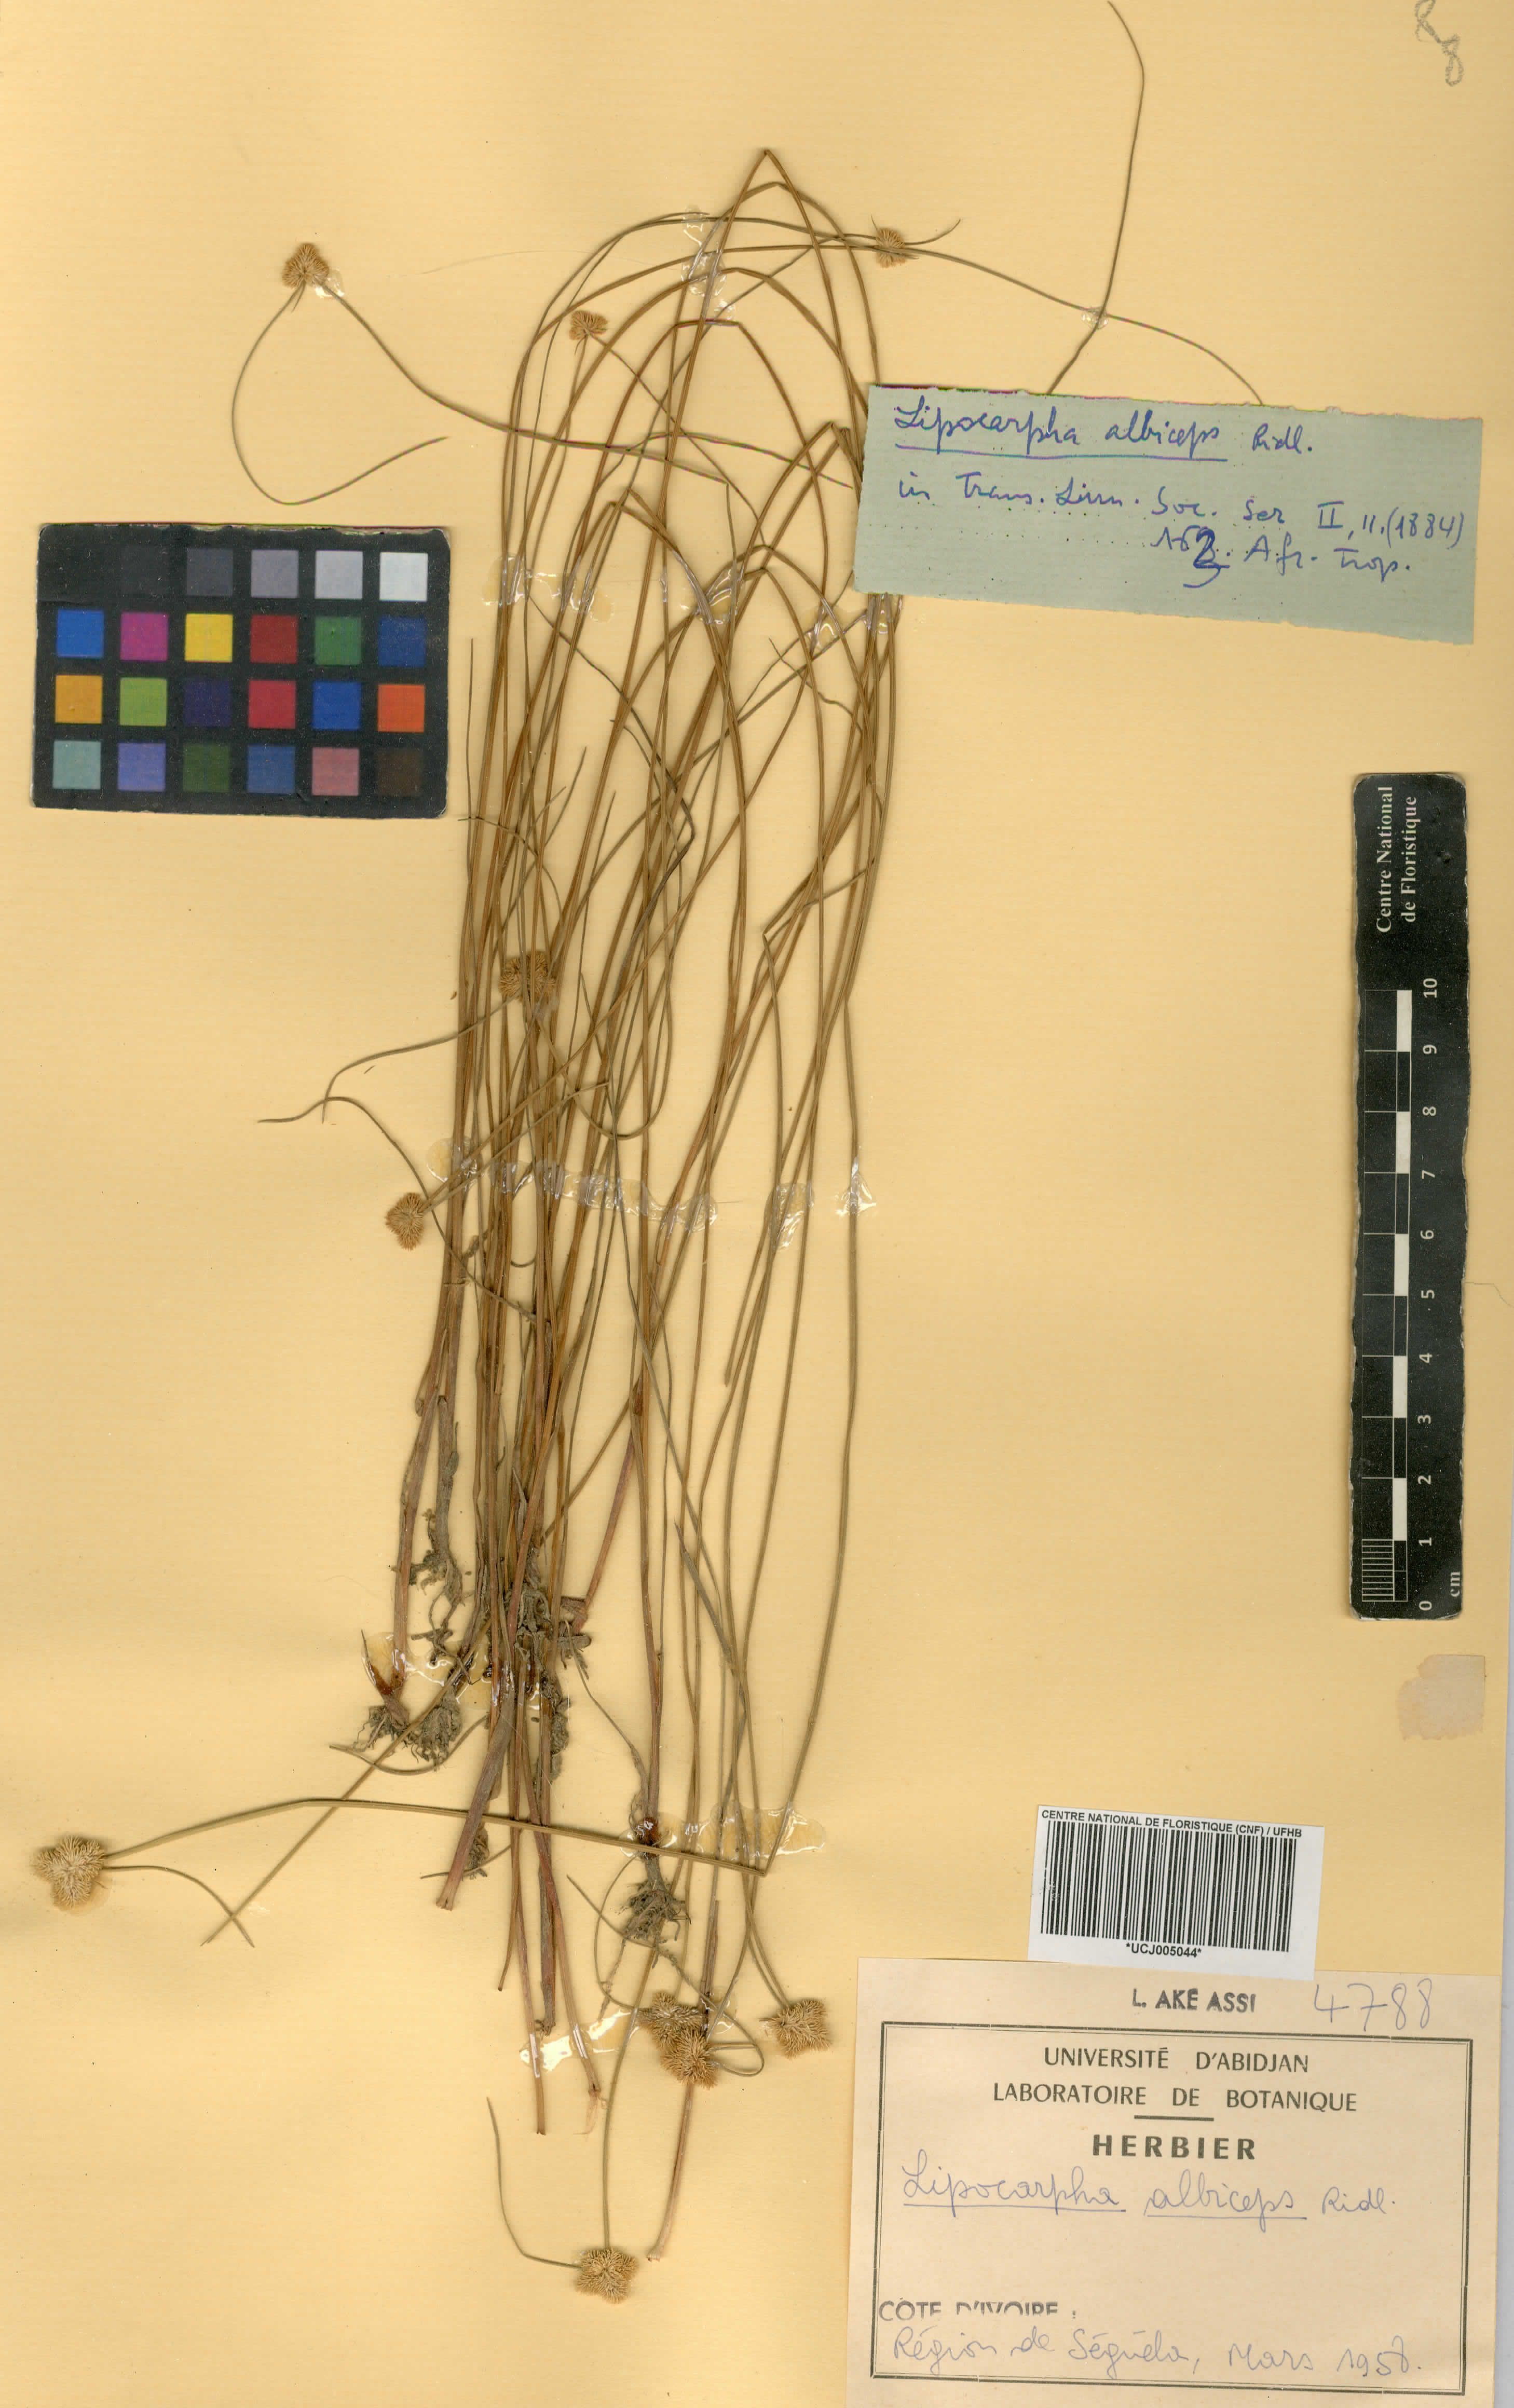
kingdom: Plantae
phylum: Tracheophyta
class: Liliopsida
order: Poales
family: Cyperaceae
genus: Cyperus
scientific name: Cyperus purpureoluteus
